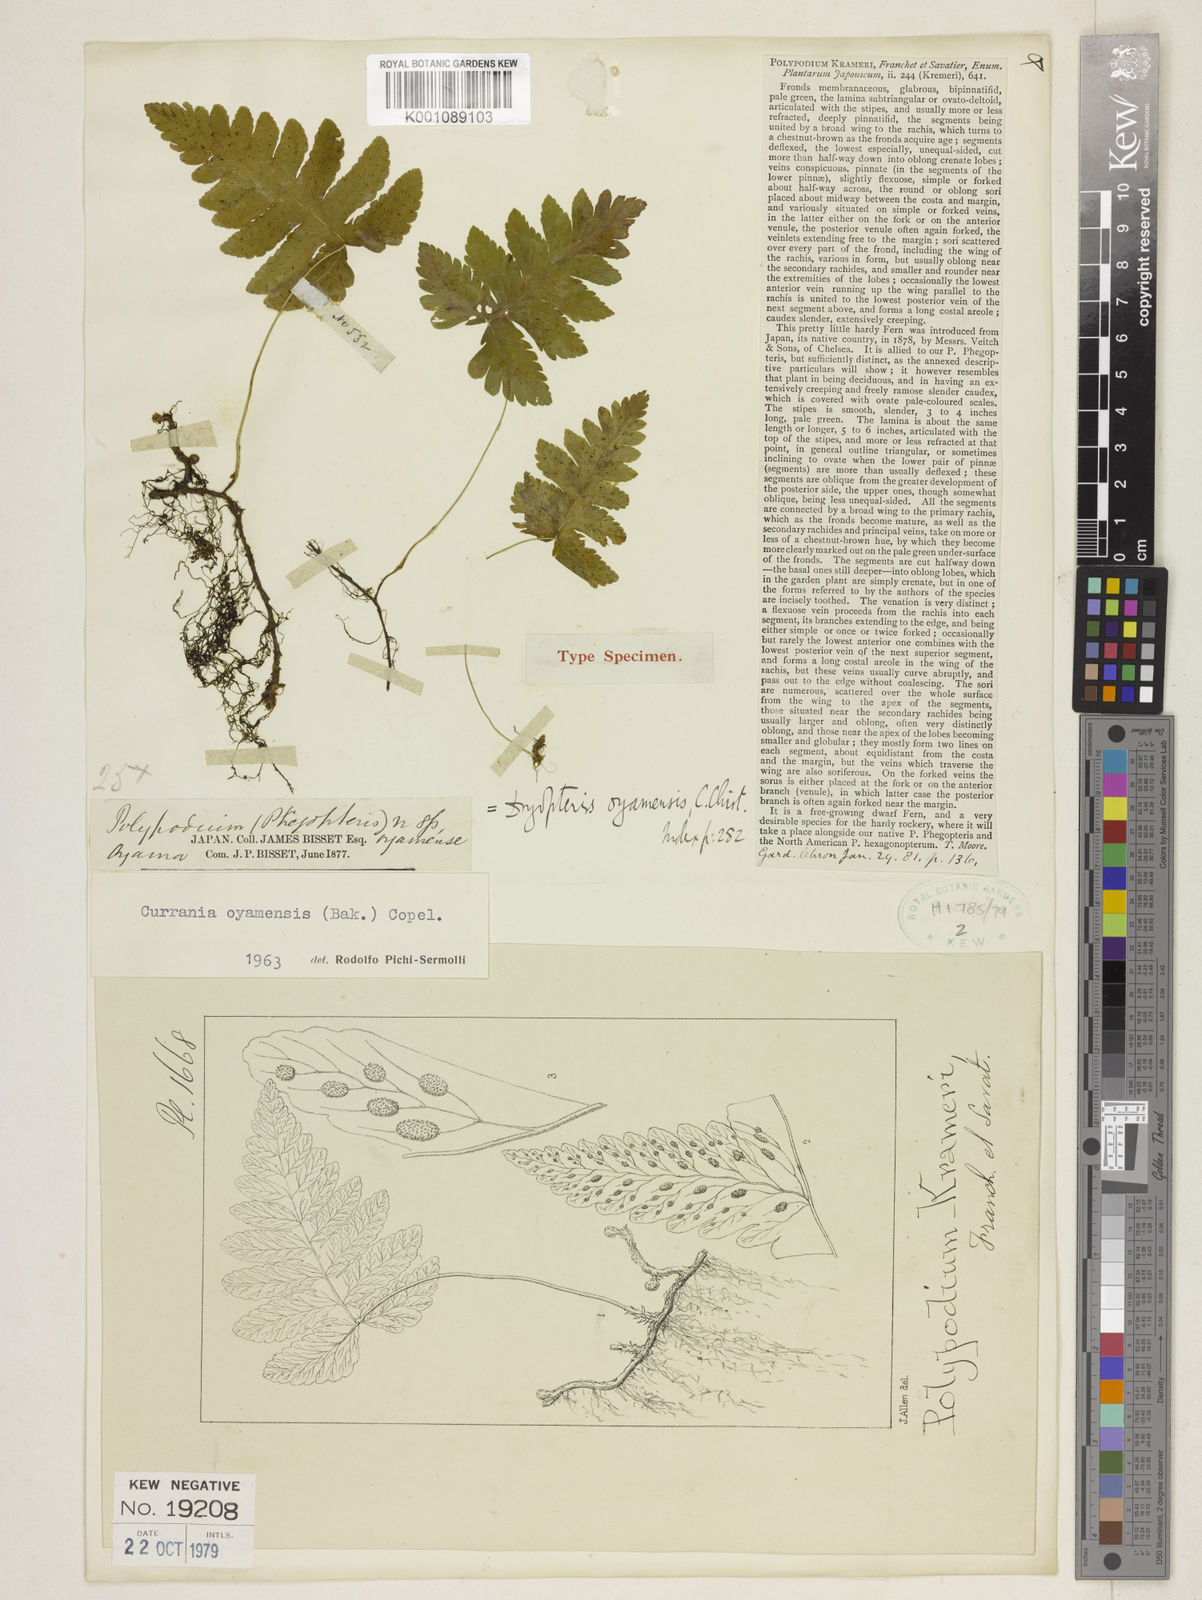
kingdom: Plantae
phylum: Tracheophyta
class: Polypodiopsida
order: Polypodiales
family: Cystopteridaceae
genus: Gymnocarpium
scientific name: Gymnocarpium oyamense
